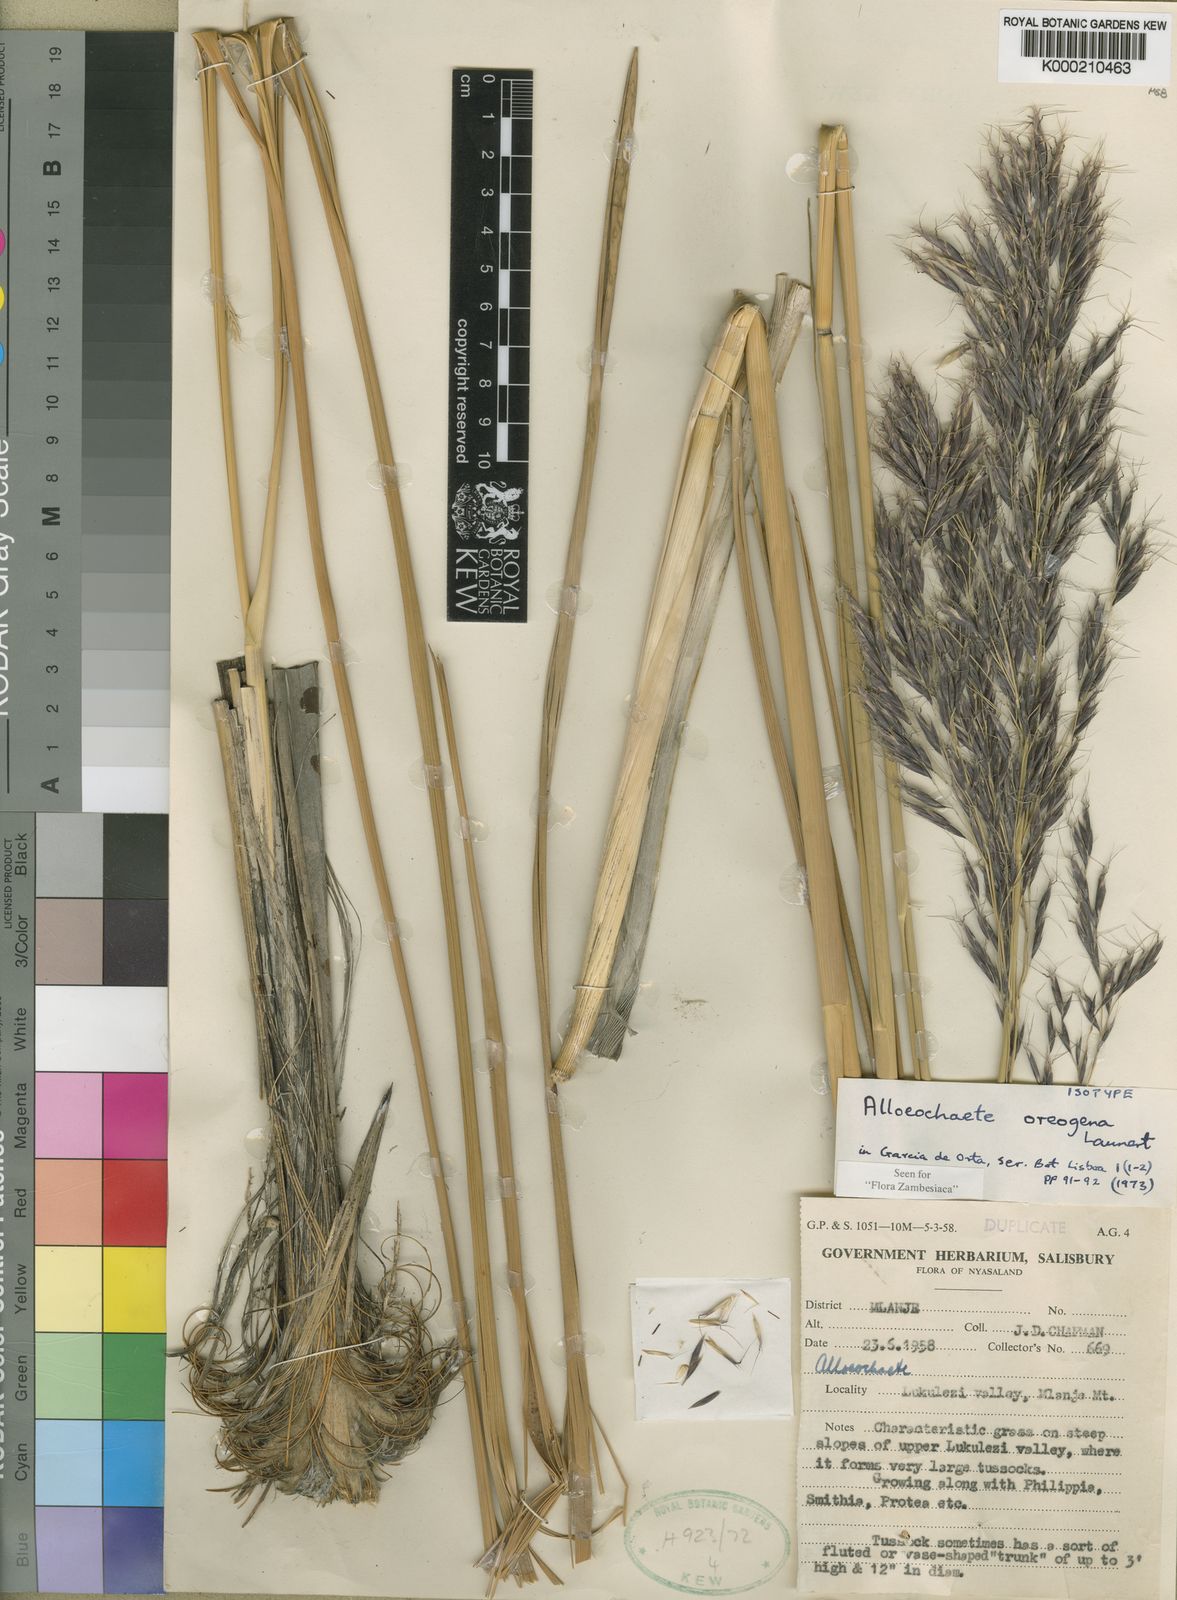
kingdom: Plantae
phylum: Tracheophyta
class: Liliopsida
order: Poales
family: Poaceae
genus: Alloeochaete
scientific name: Alloeochaete oreogena
